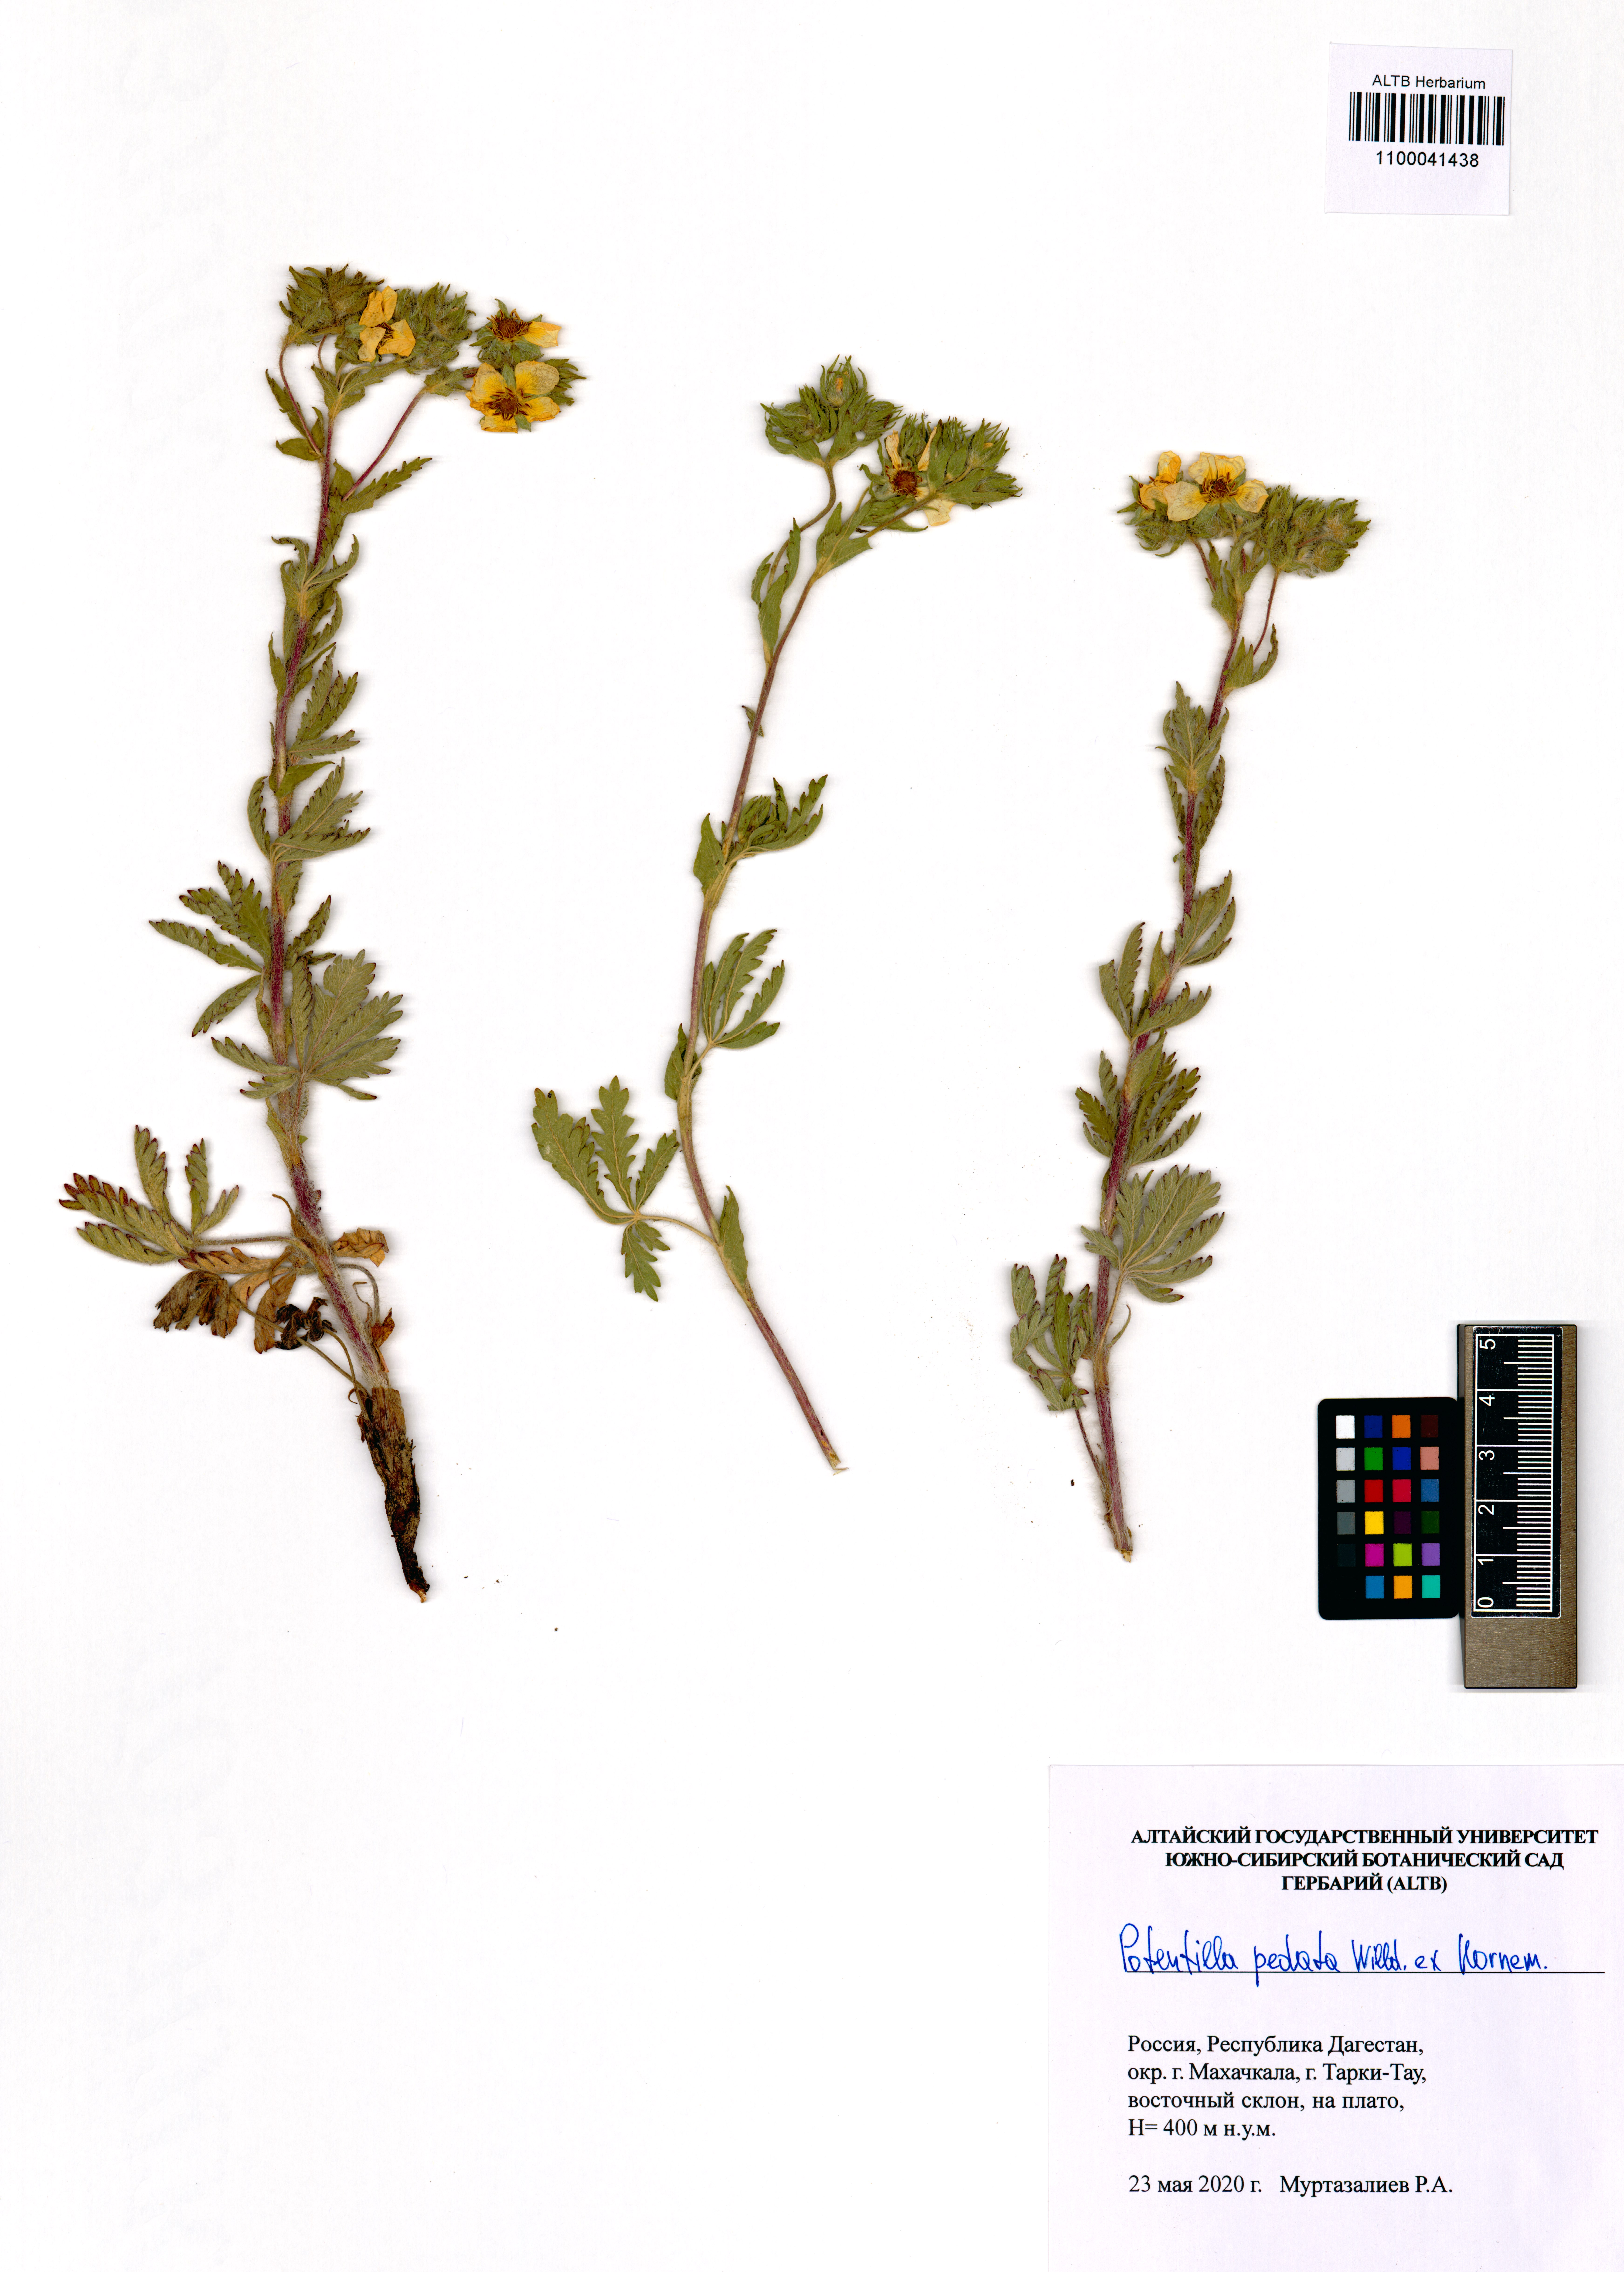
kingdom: Plantae
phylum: Tracheophyta
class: Magnoliopsida
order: Rosales
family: Rosaceae
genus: Potentilla
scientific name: Potentilla pedata
